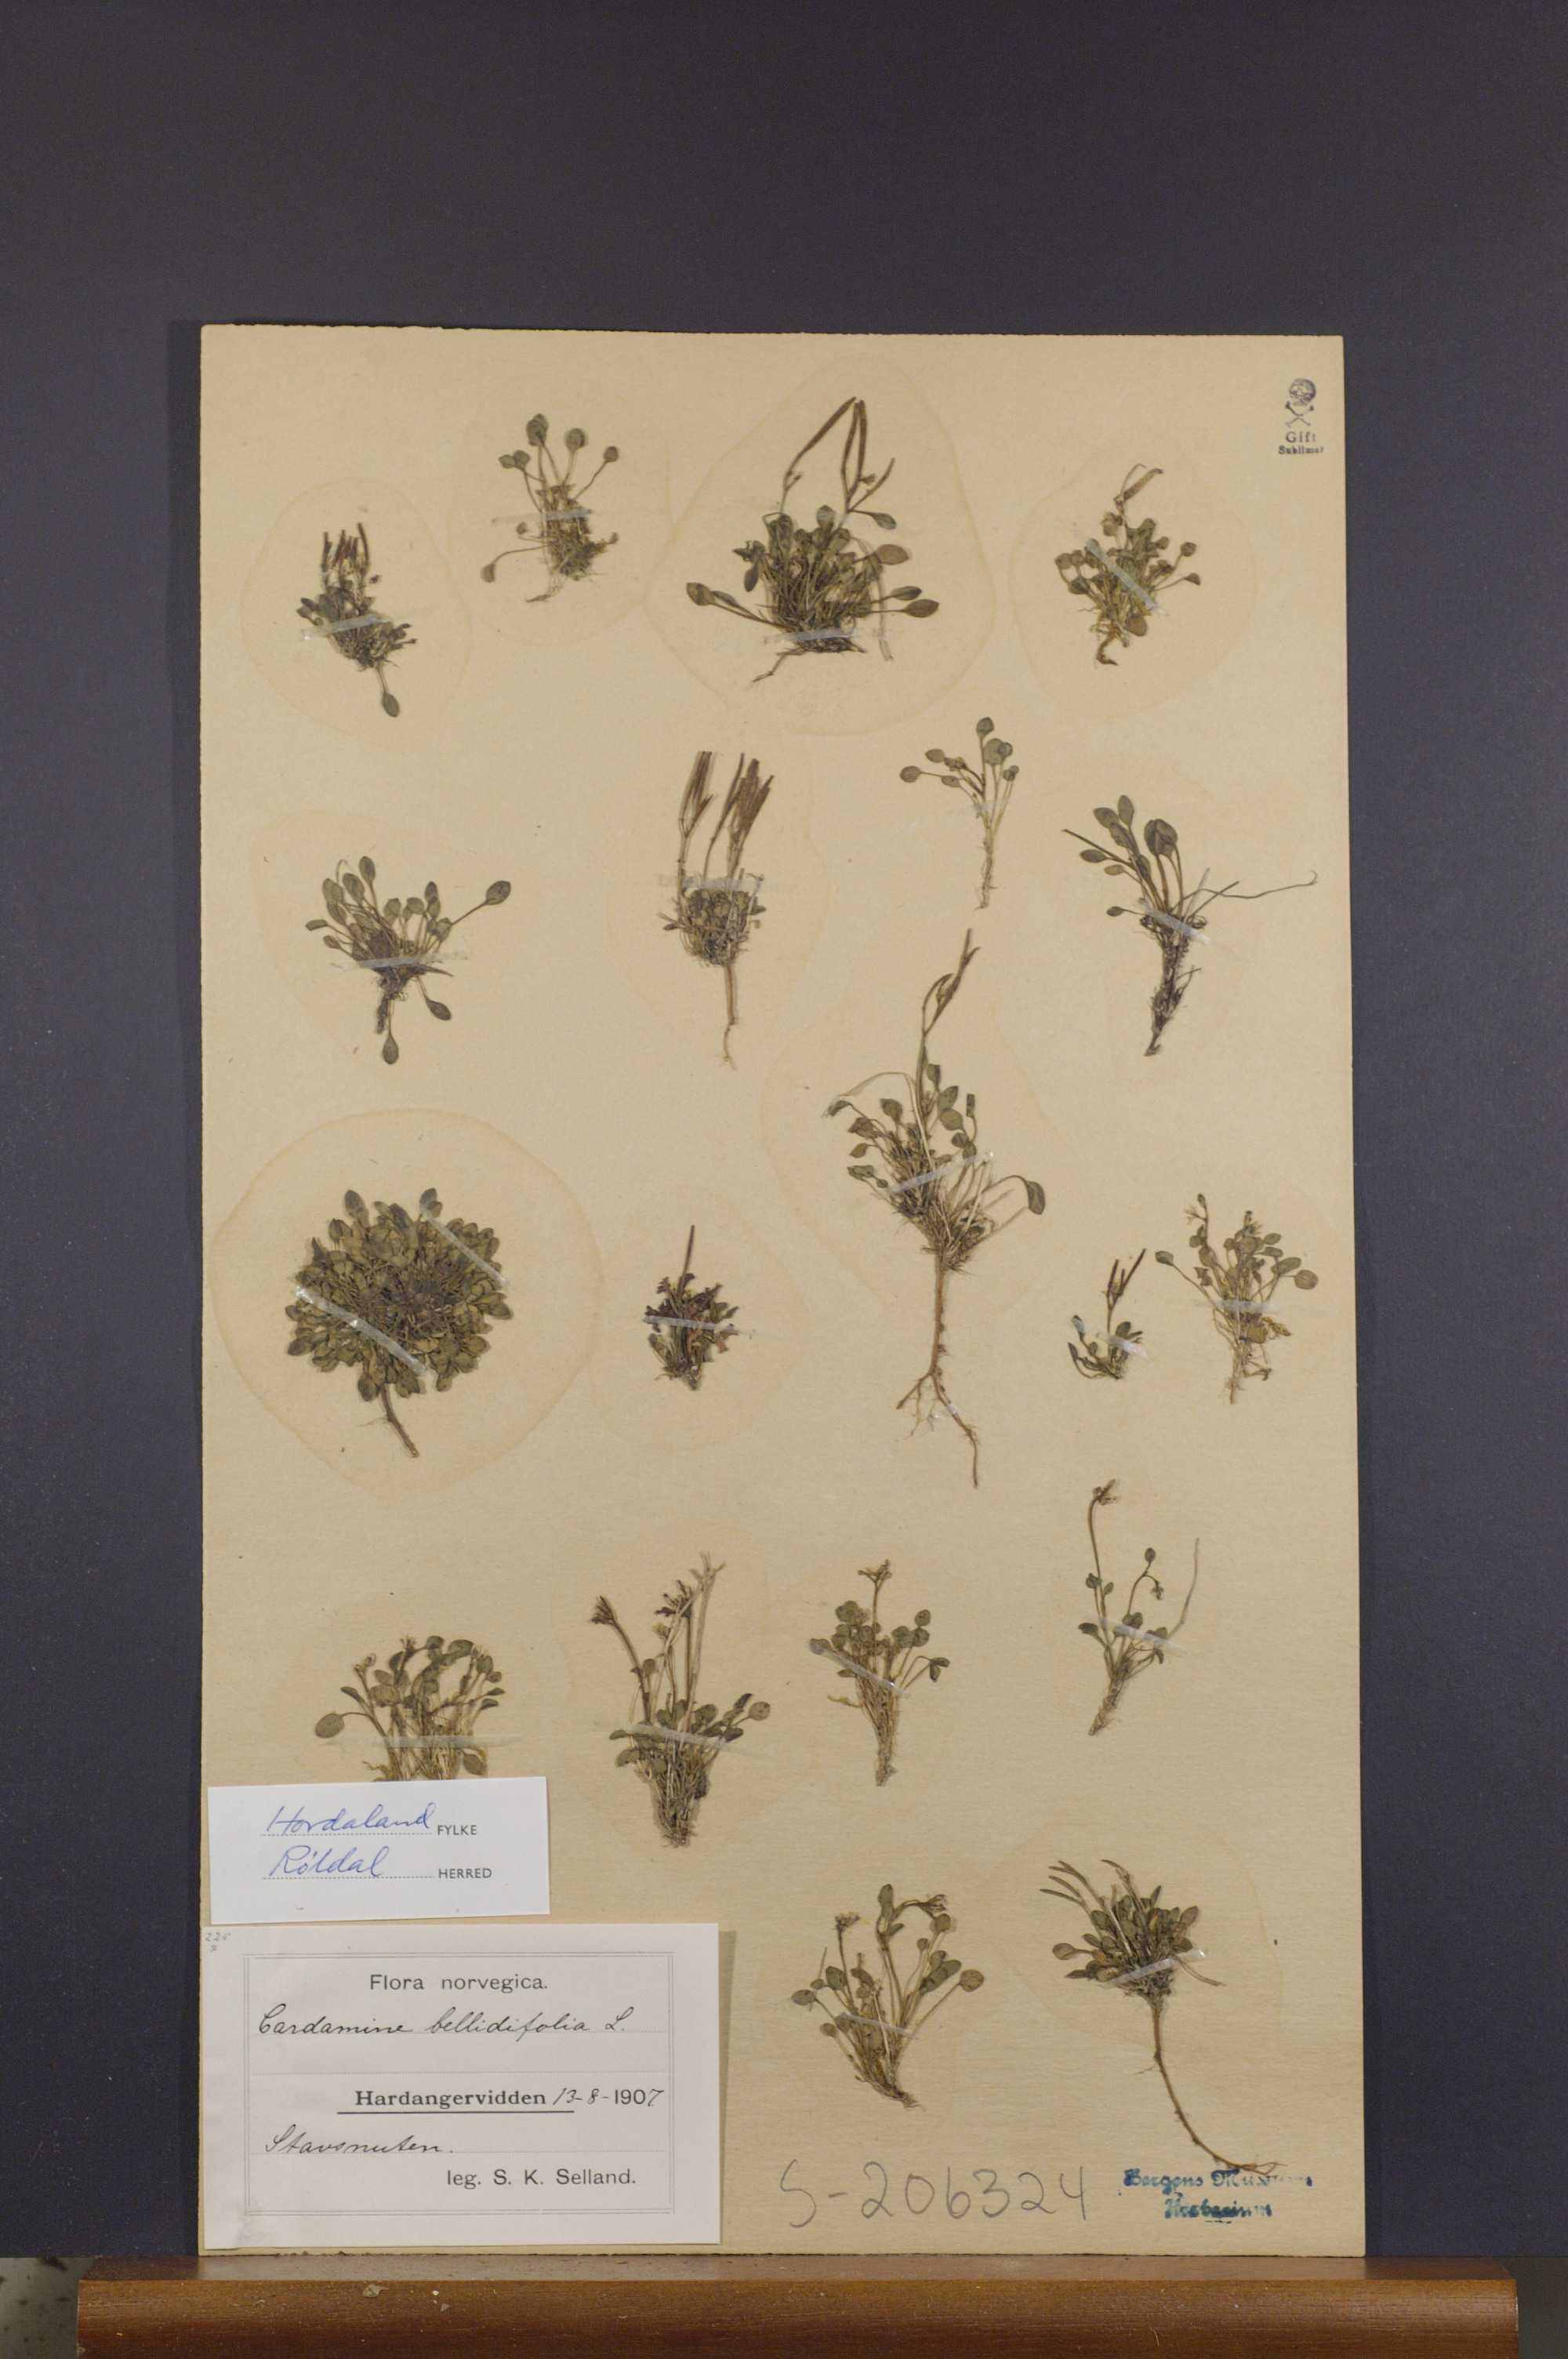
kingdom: Plantae
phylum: Tracheophyta
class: Magnoliopsida
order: Brassicales
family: Brassicaceae
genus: Cardamine
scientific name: Cardamine bellidifolia
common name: Alpine bittercress
